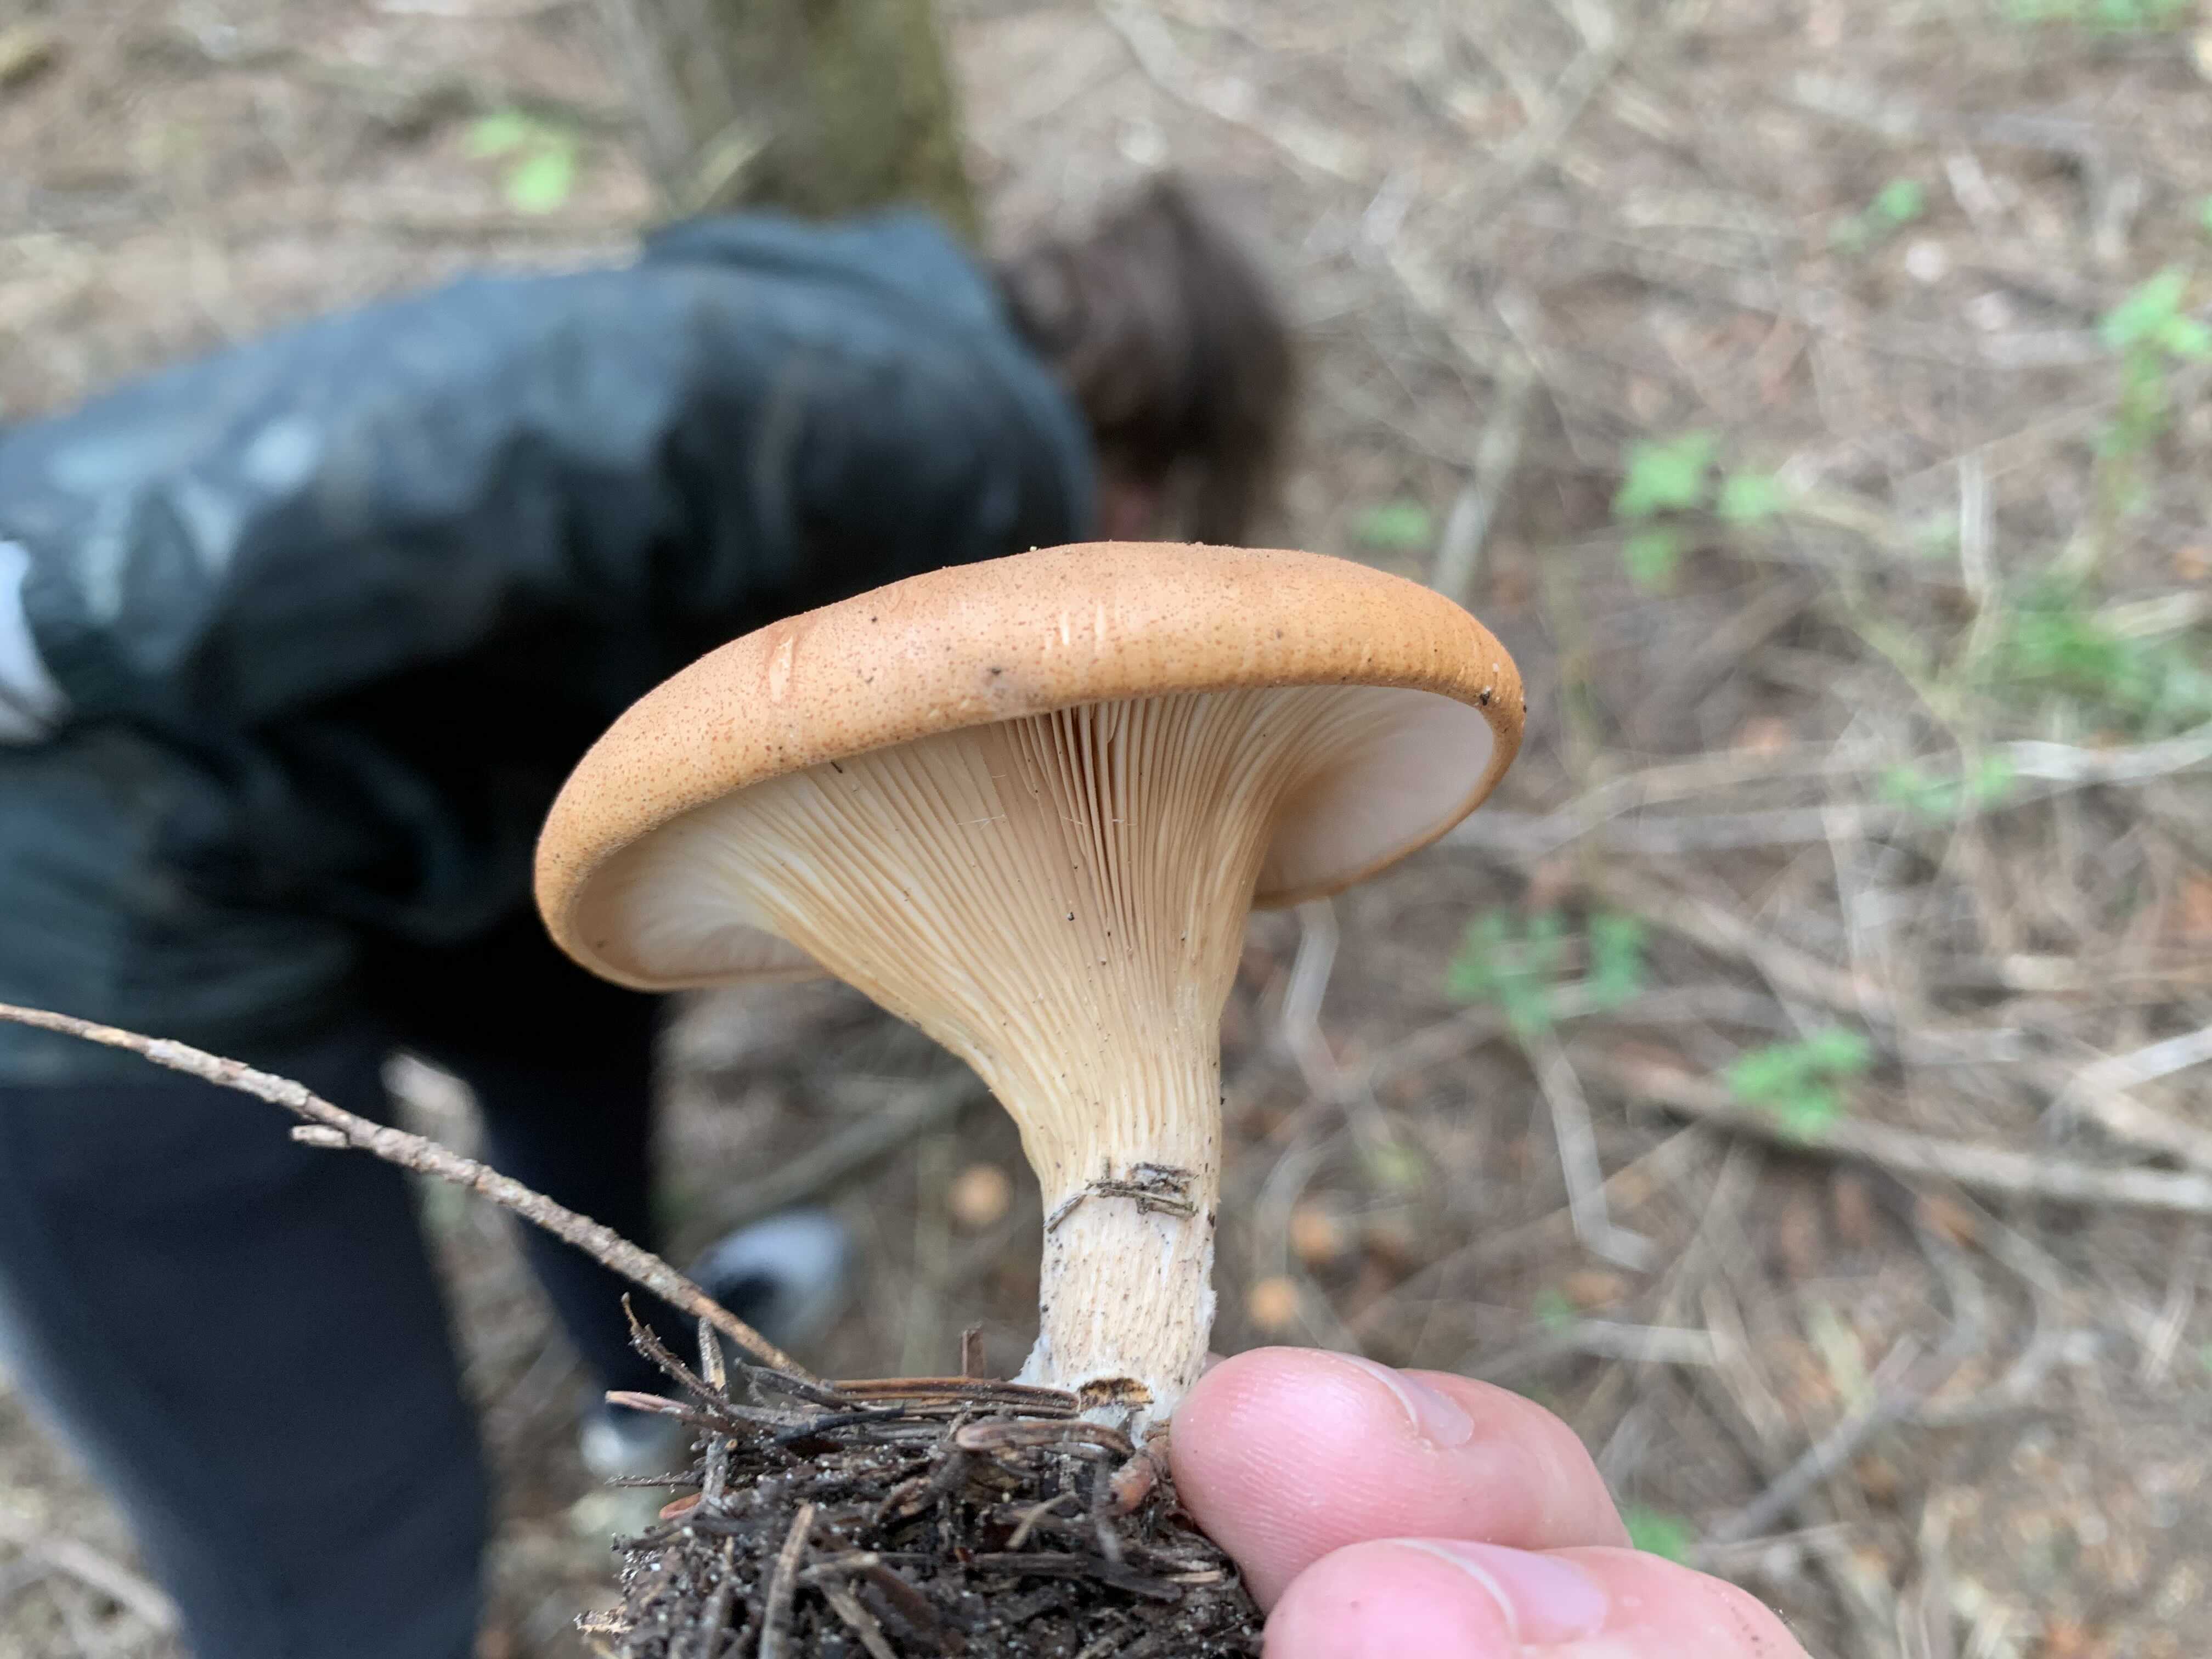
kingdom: Fungi
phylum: Basidiomycota
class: Agaricomycetes
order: Agaricales
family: Tricholomataceae
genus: Paralepista
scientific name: Paralepista flaccida
